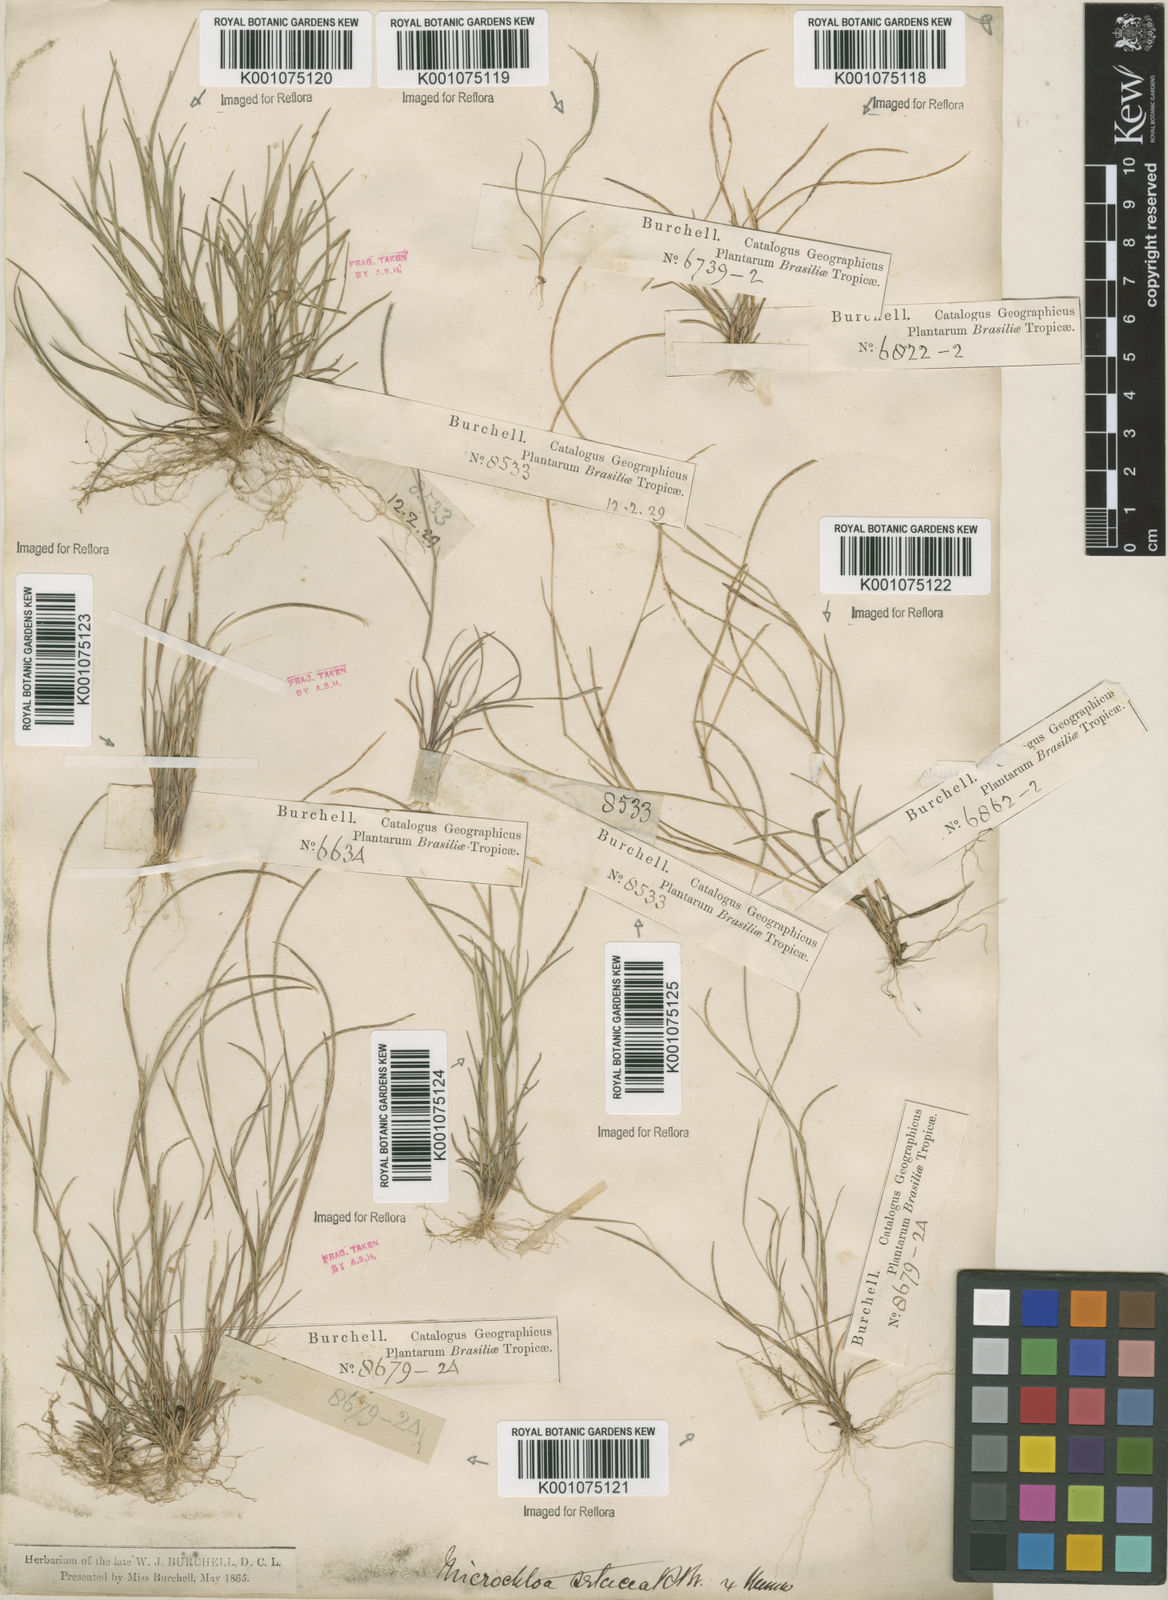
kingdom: Plantae
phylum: Tracheophyta
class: Liliopsida
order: Poales
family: Poaceae
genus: Microchloa
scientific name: Microchloa indica
